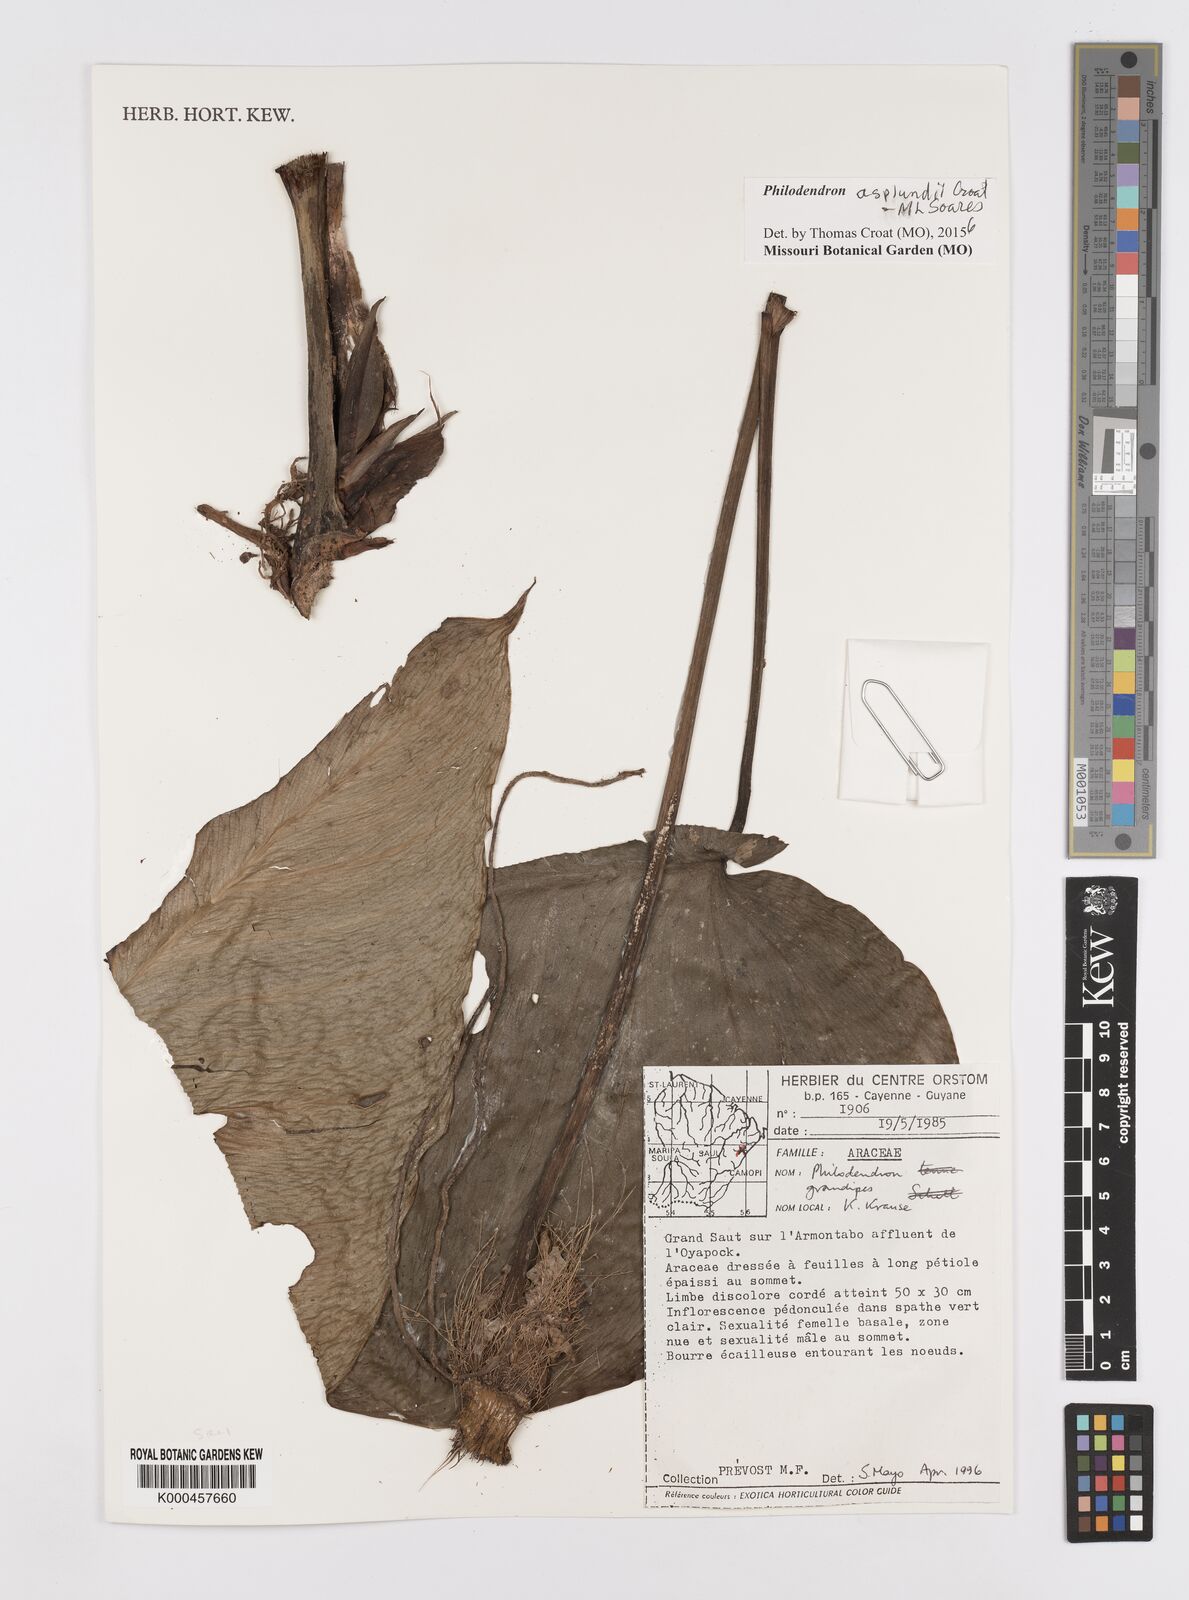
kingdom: Plantae
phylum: Tracheophyta
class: Liliopsida
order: Alismatales
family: Araceae
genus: Philodendron
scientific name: Philodendron grandipes
